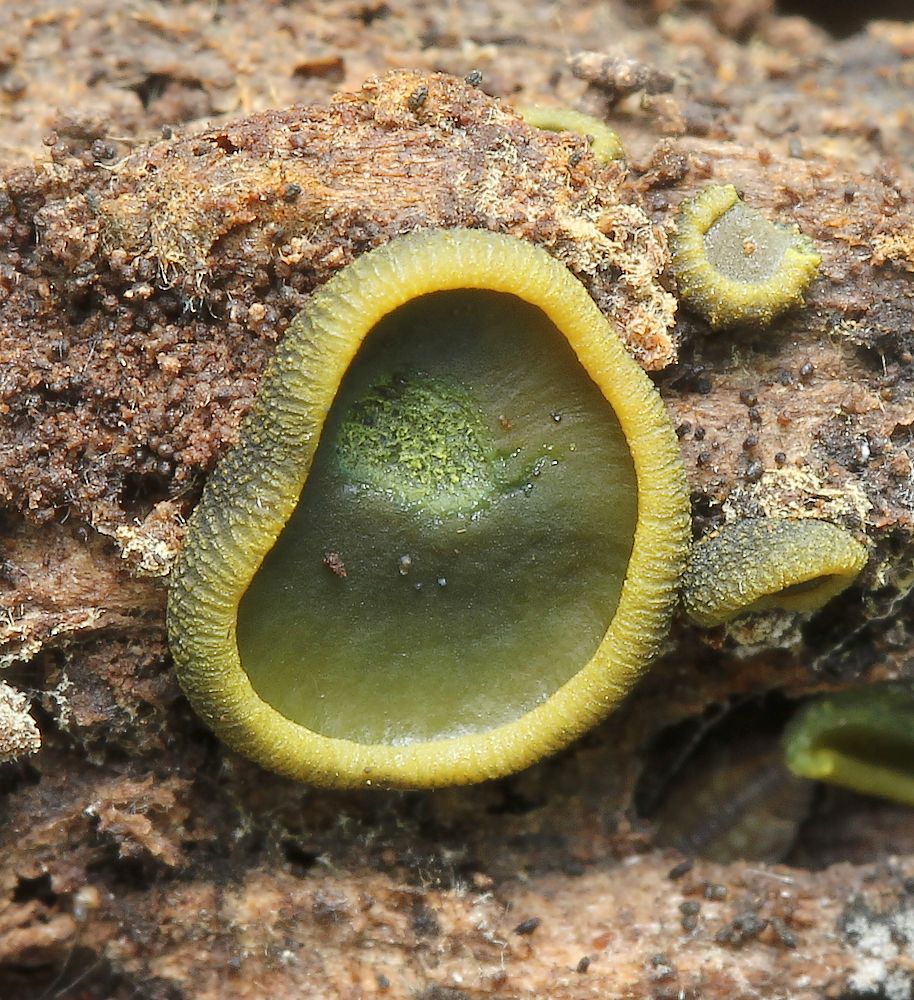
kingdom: Fungi
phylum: Ascomycota
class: Dothideomycetes
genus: Catinella
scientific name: Catinella olivacea
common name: olivenskive
